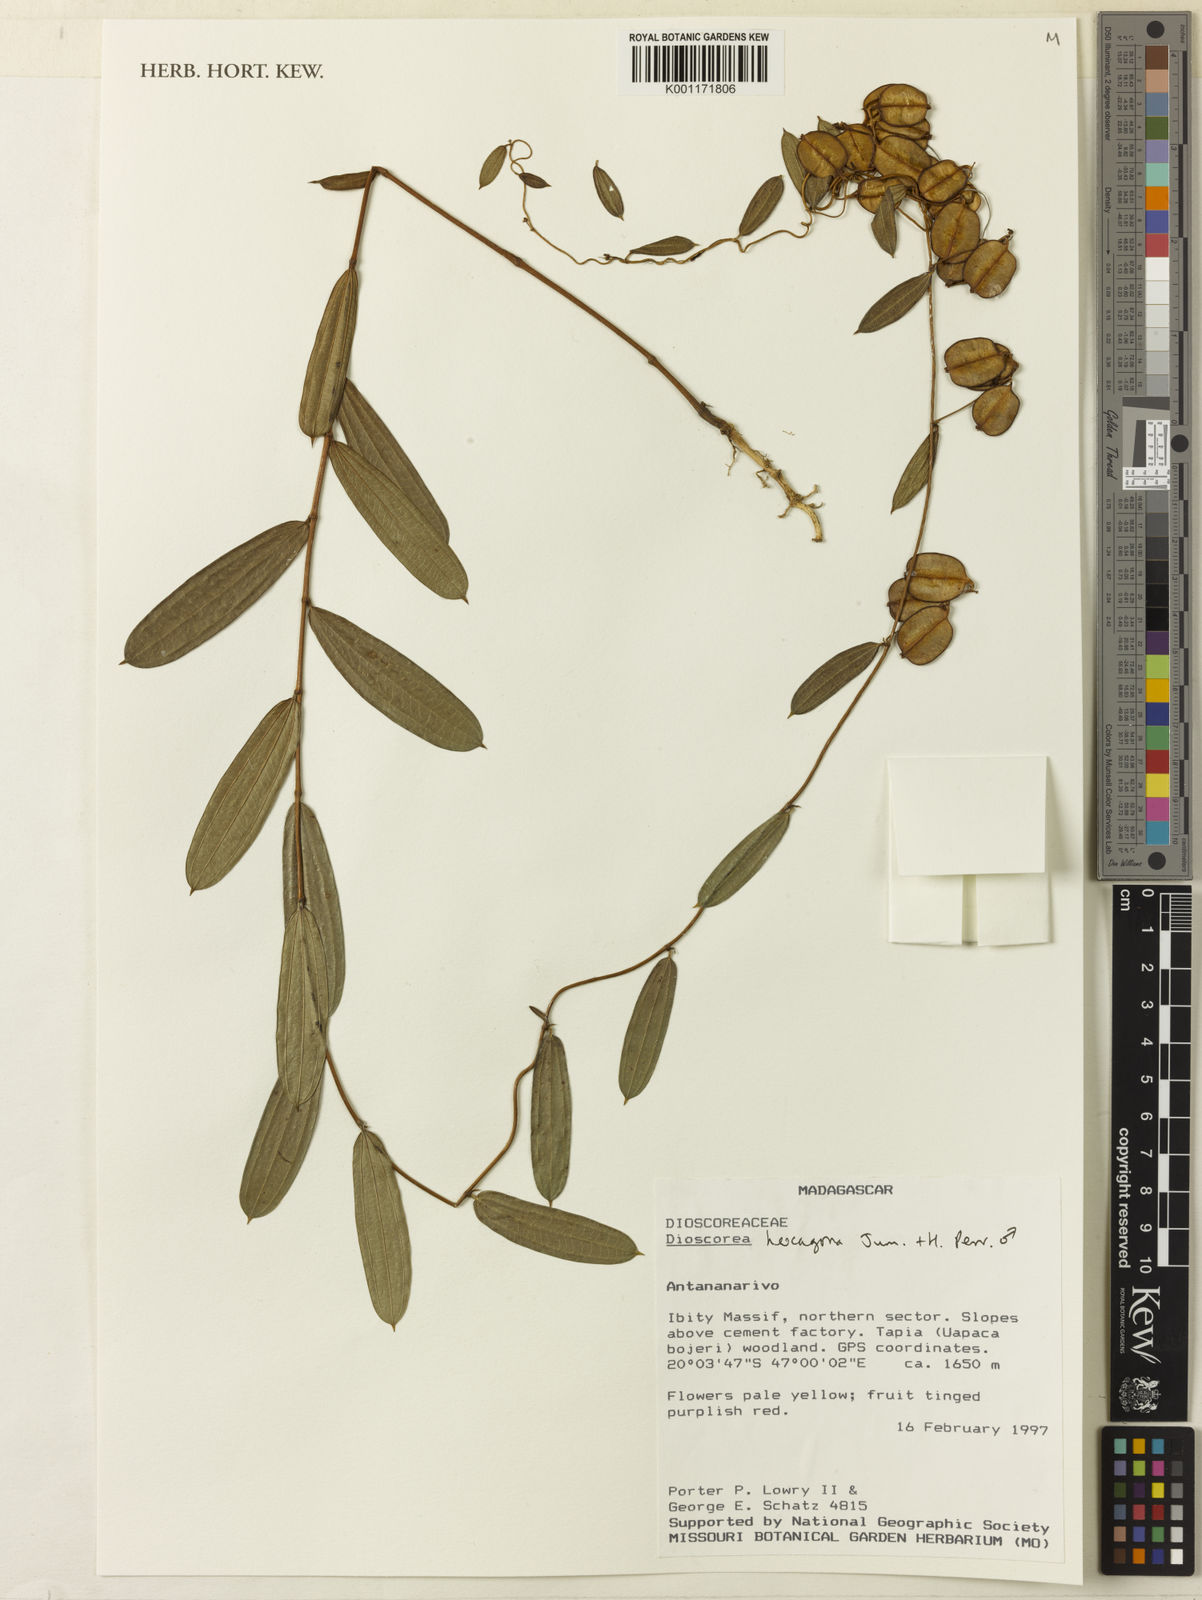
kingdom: Plantae
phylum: Tracheophyta
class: Liliopsida
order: Dioscoreales
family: Dioscoreaceae
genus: Dioscorea
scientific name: Dioscorea hexagona
